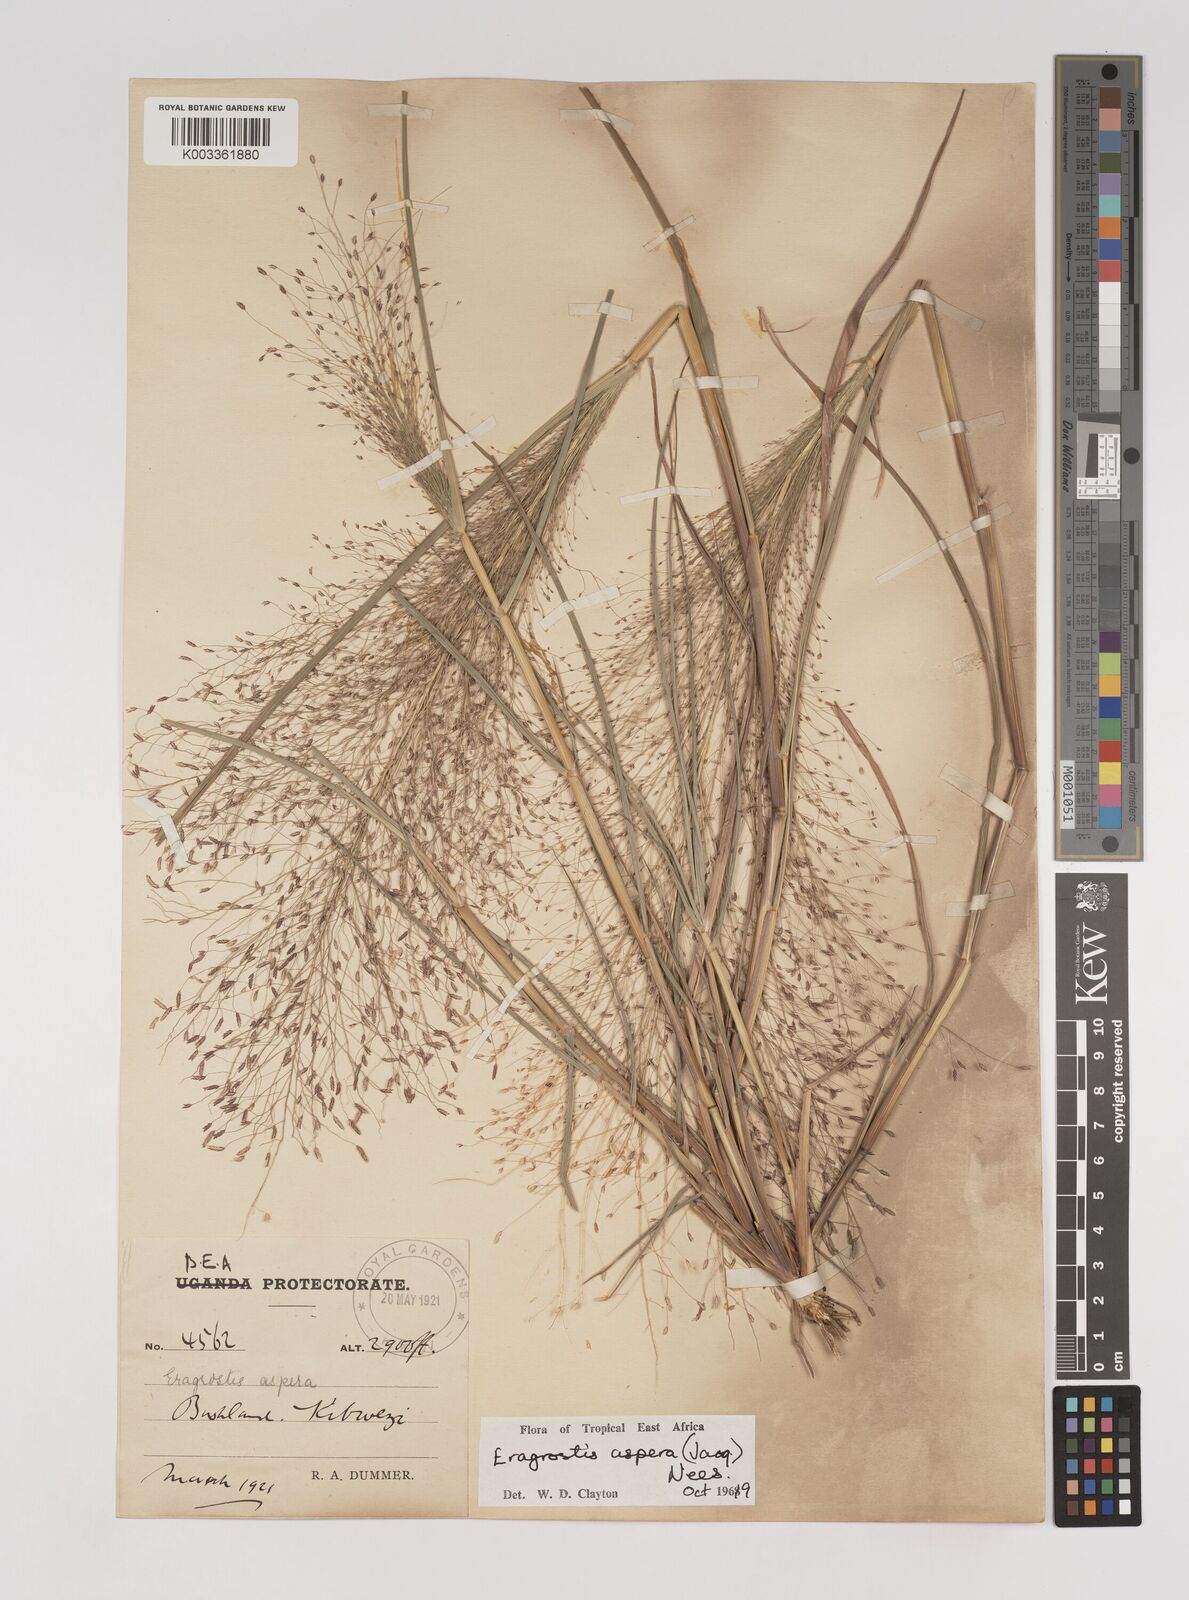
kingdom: Plantae
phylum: Tracheophyta
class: Liliopsida
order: Poales
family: Poaceae
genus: Eragrostis
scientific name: Eragrostis aspera
